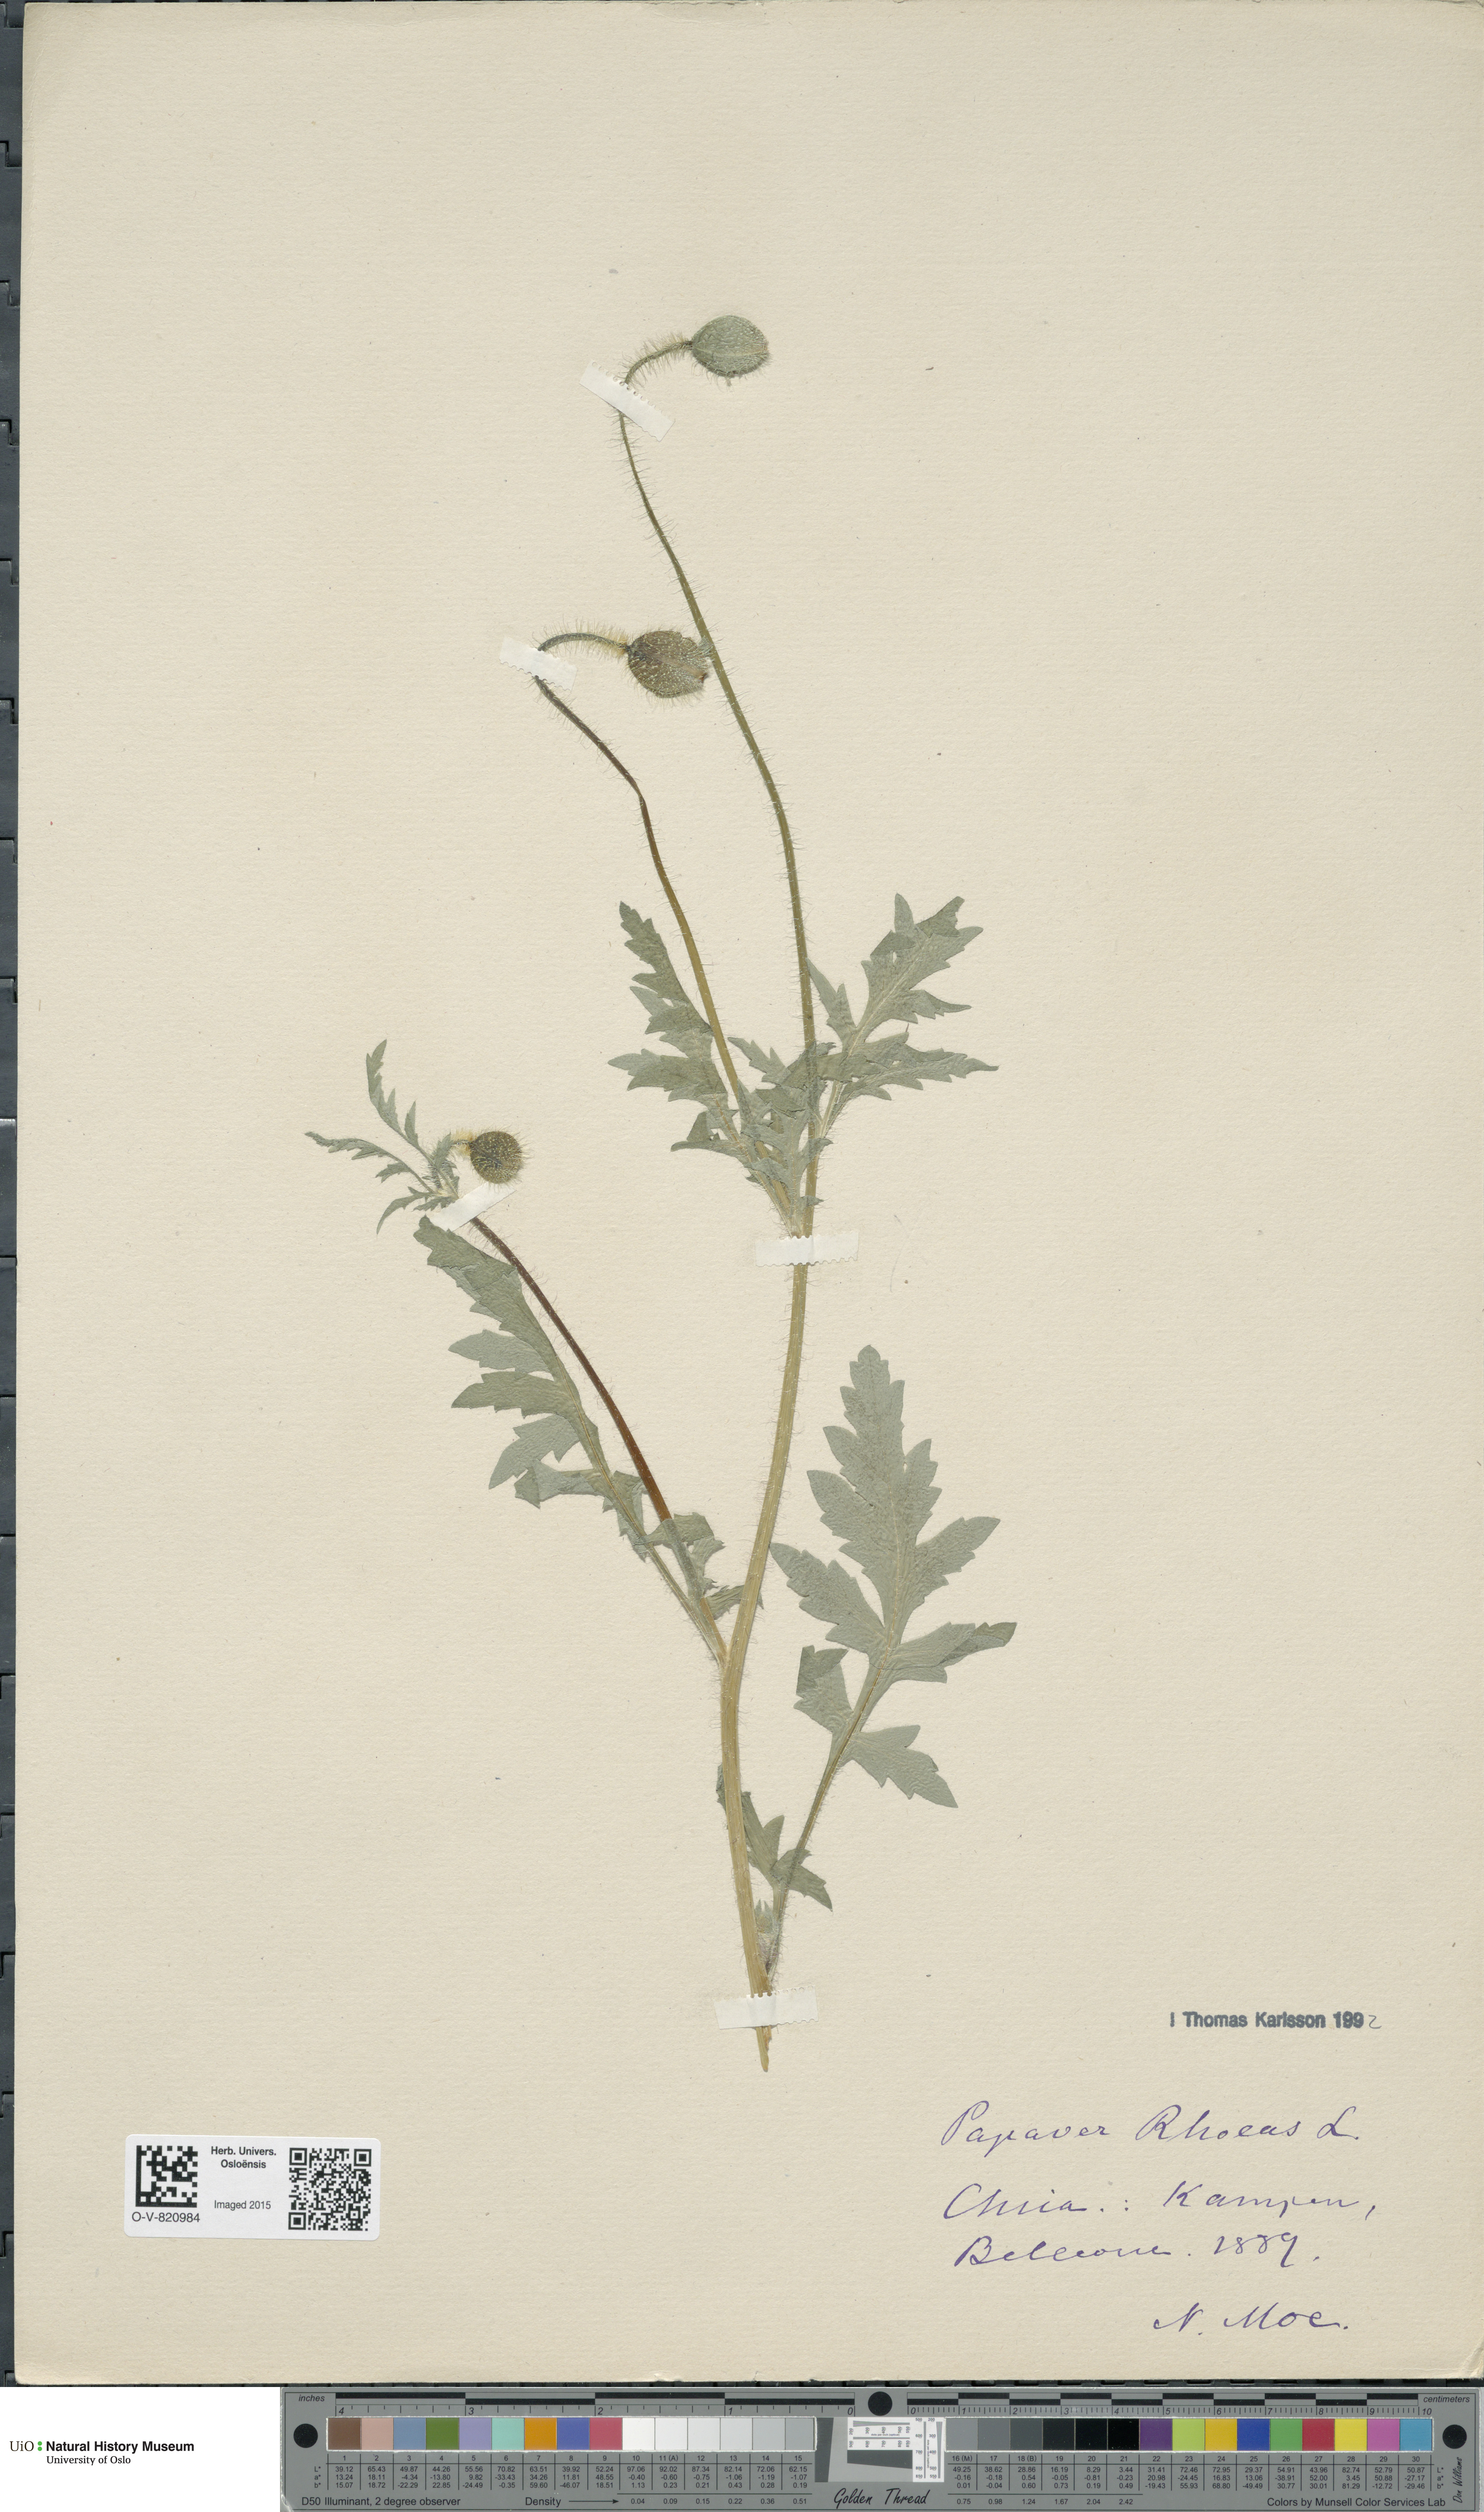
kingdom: Plantae
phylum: Tracheophyta
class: Magnoliopsida
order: Ranunculales
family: Papaveraceae
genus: Papaver
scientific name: Papaver rhoeas
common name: Corn poppy
